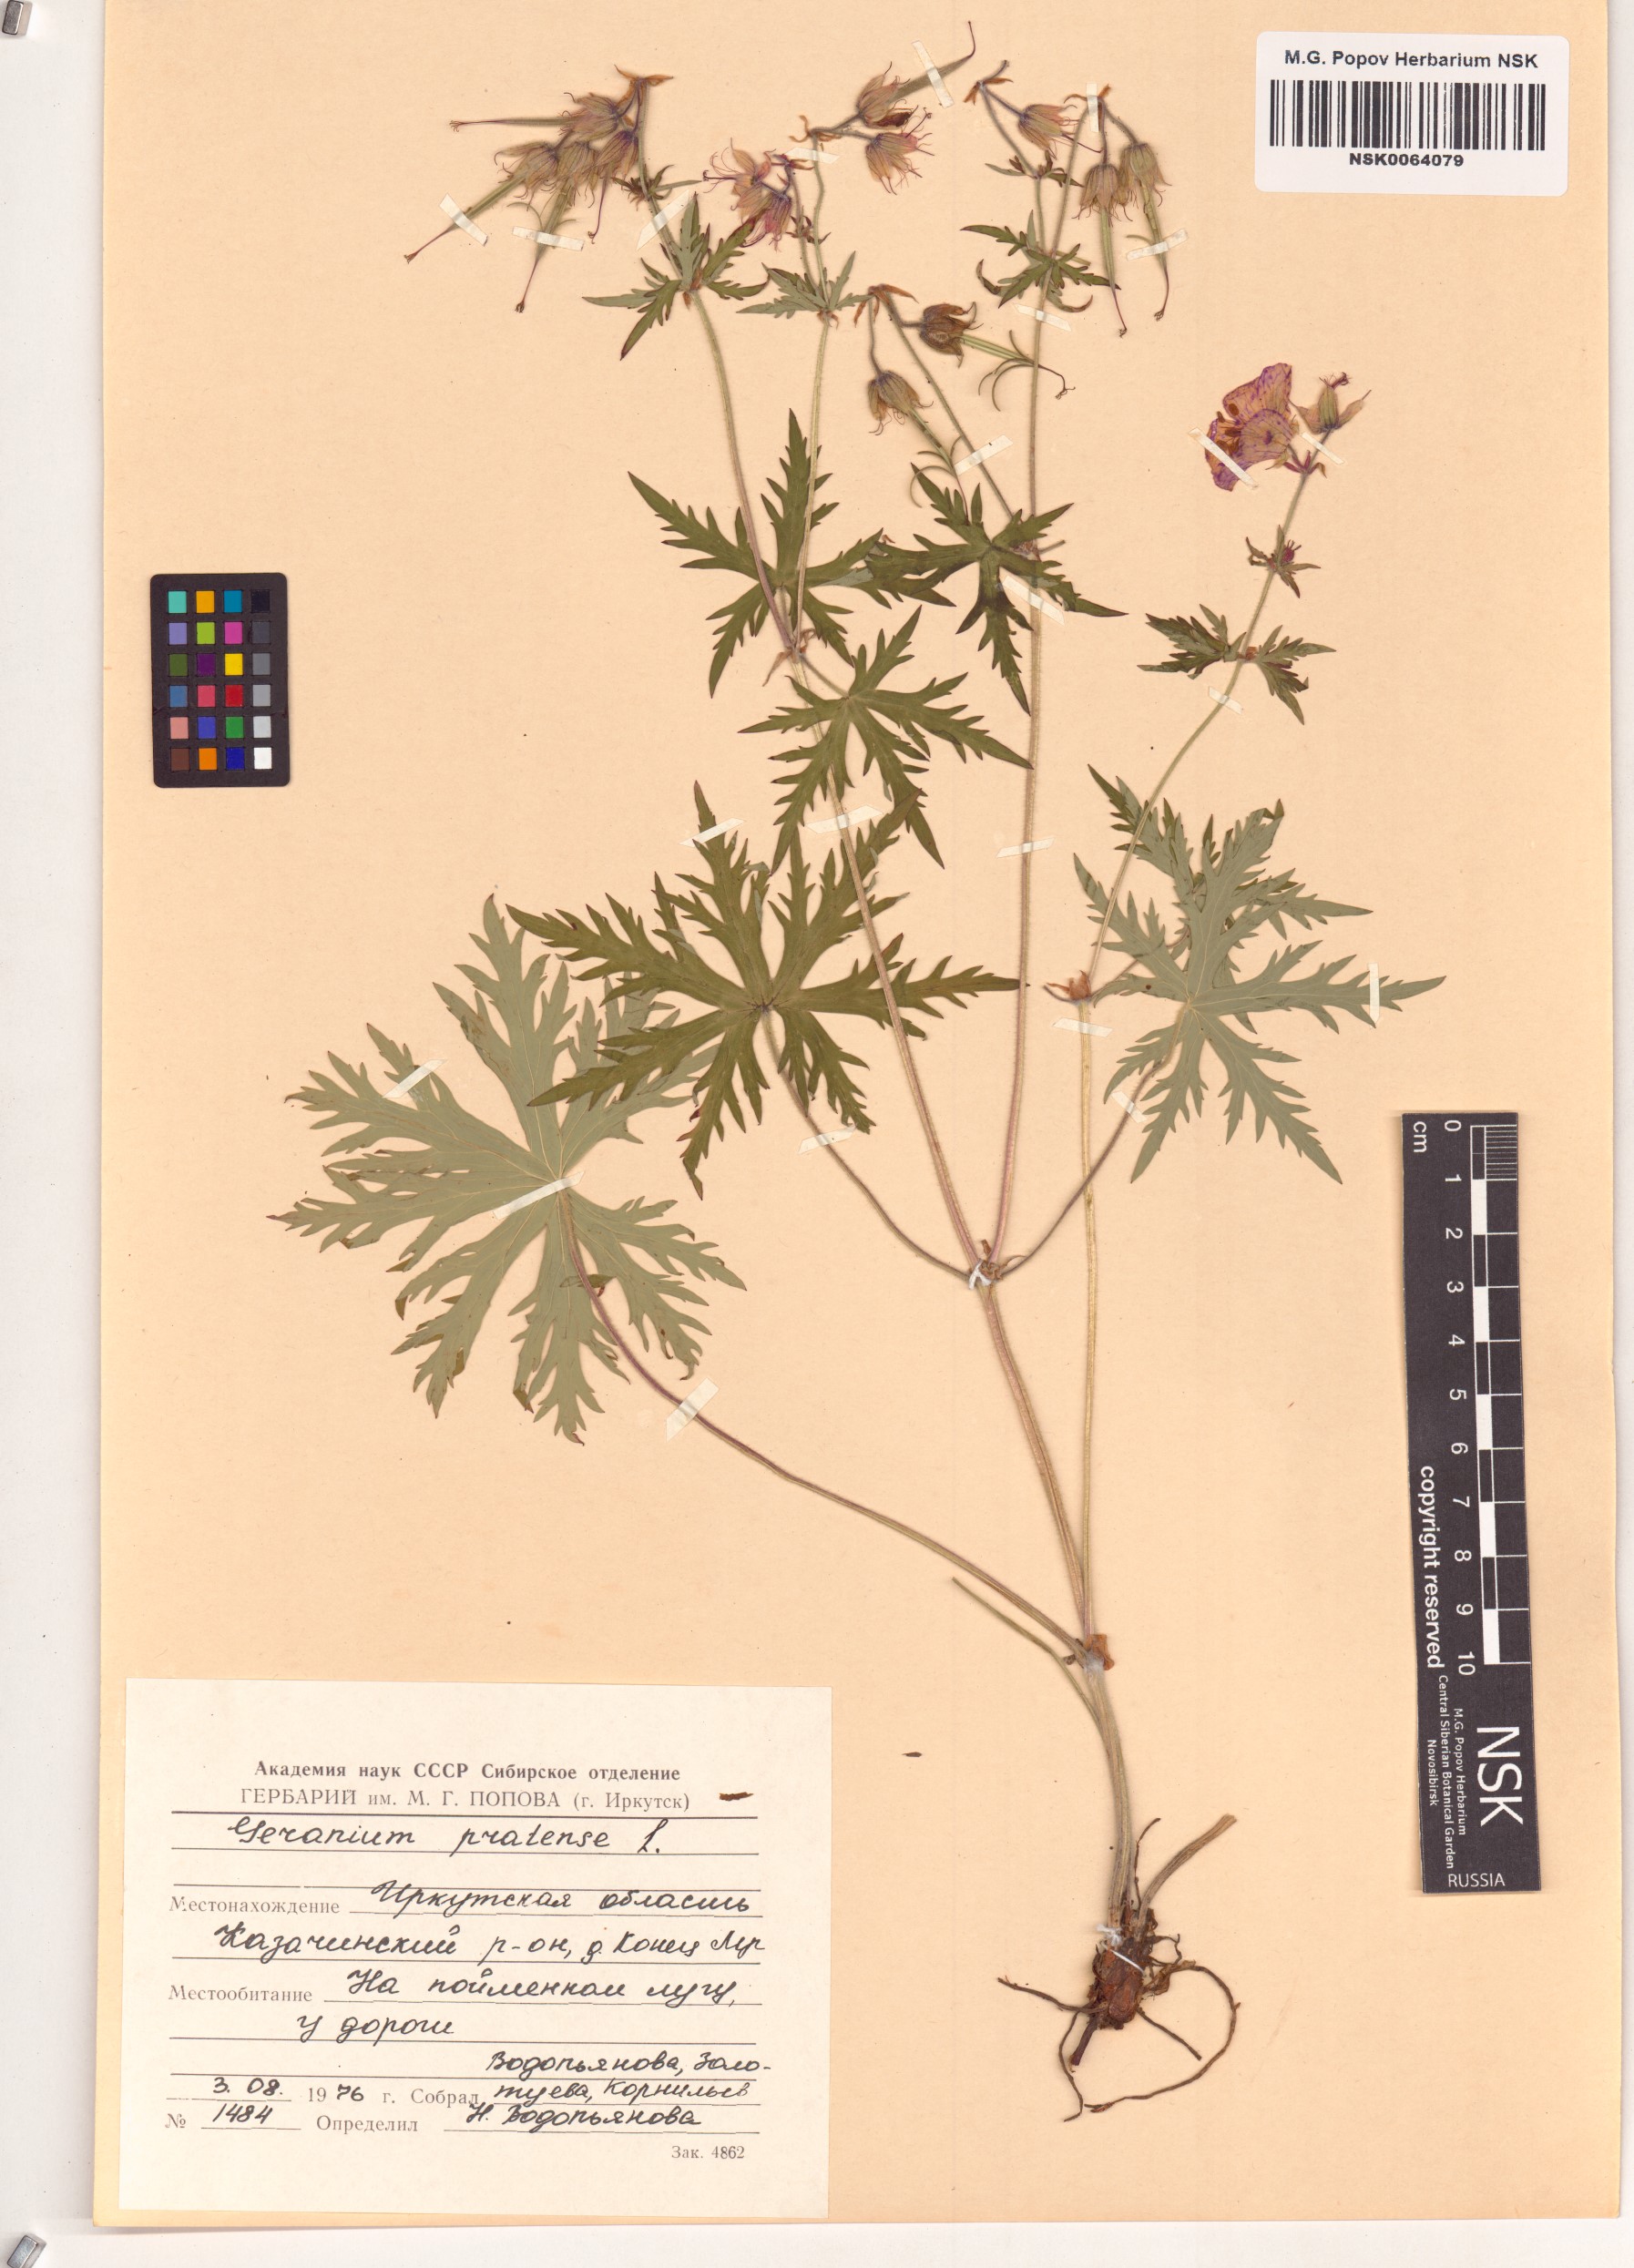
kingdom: Plantae
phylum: Tracheophyta
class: Magnoliopsida
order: Geraniales
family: Geraniaceae
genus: Geranium
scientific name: Geranium pratense
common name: Meadow crane's-bill
